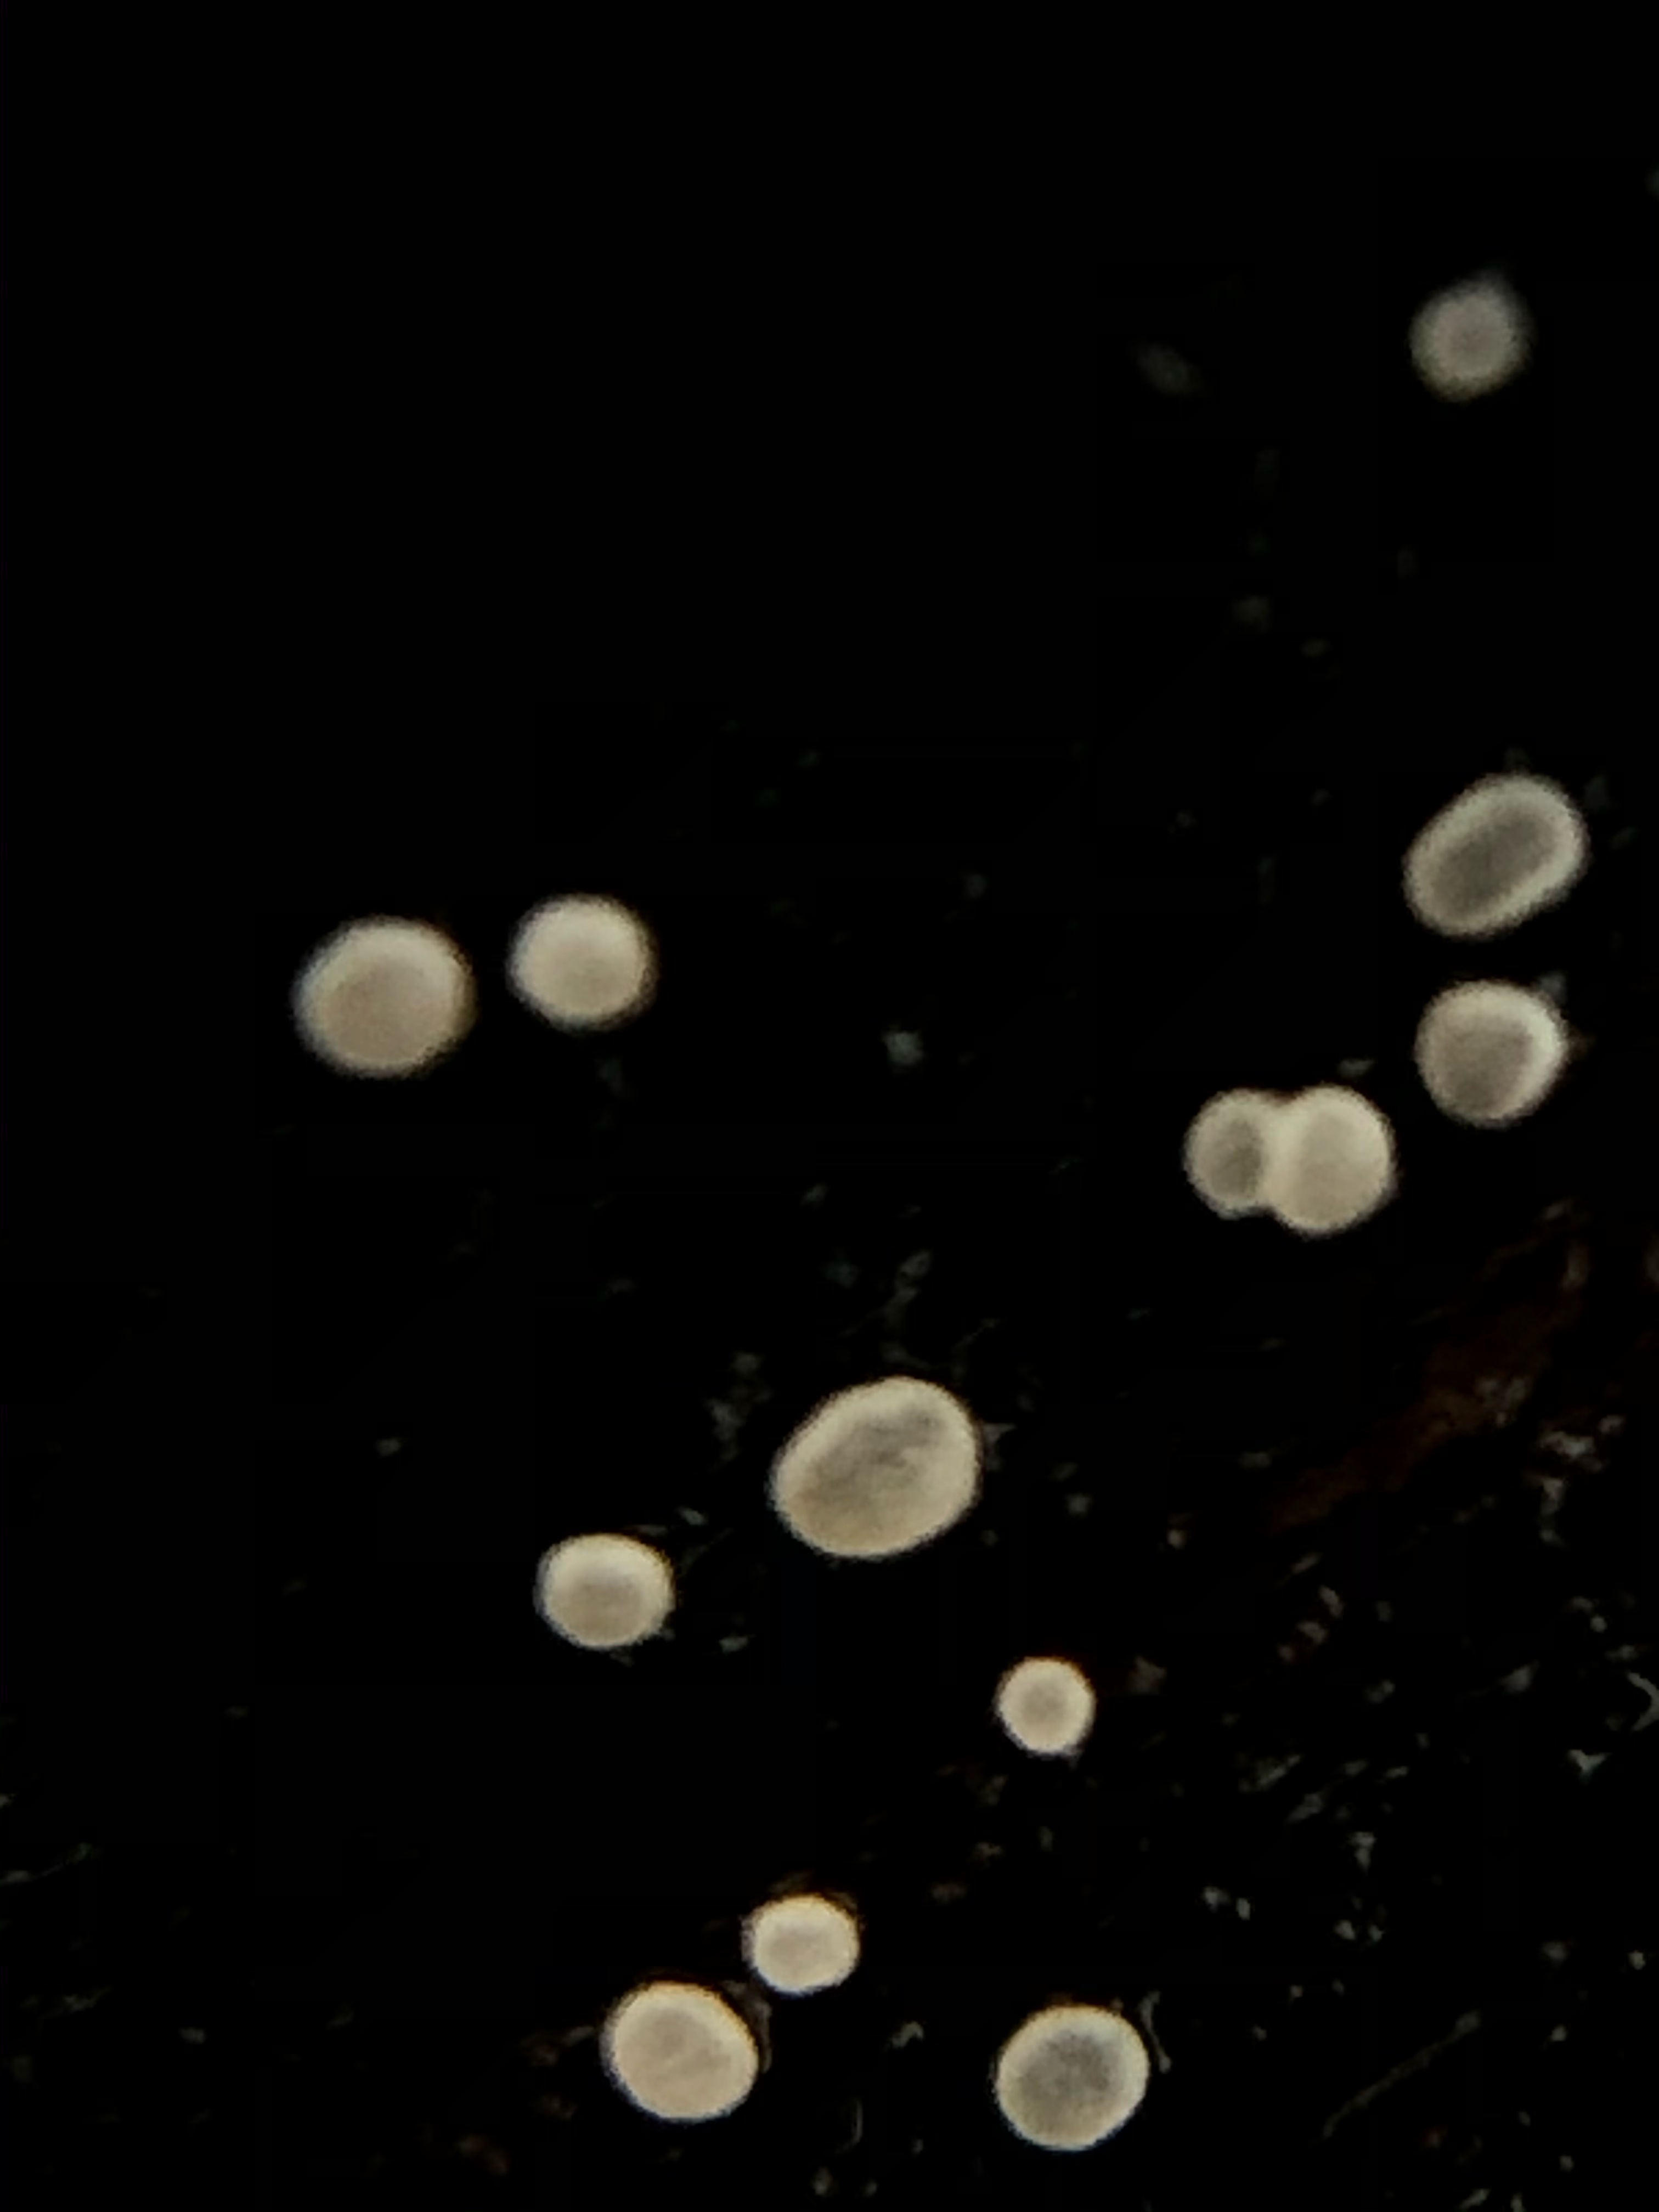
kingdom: Fungi
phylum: Ascomycota
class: Leotiomycetes
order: Helotiales
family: Hyaloscyphaceae
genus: Polydesmia
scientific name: Polydesmia pruinosa
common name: dunskive
